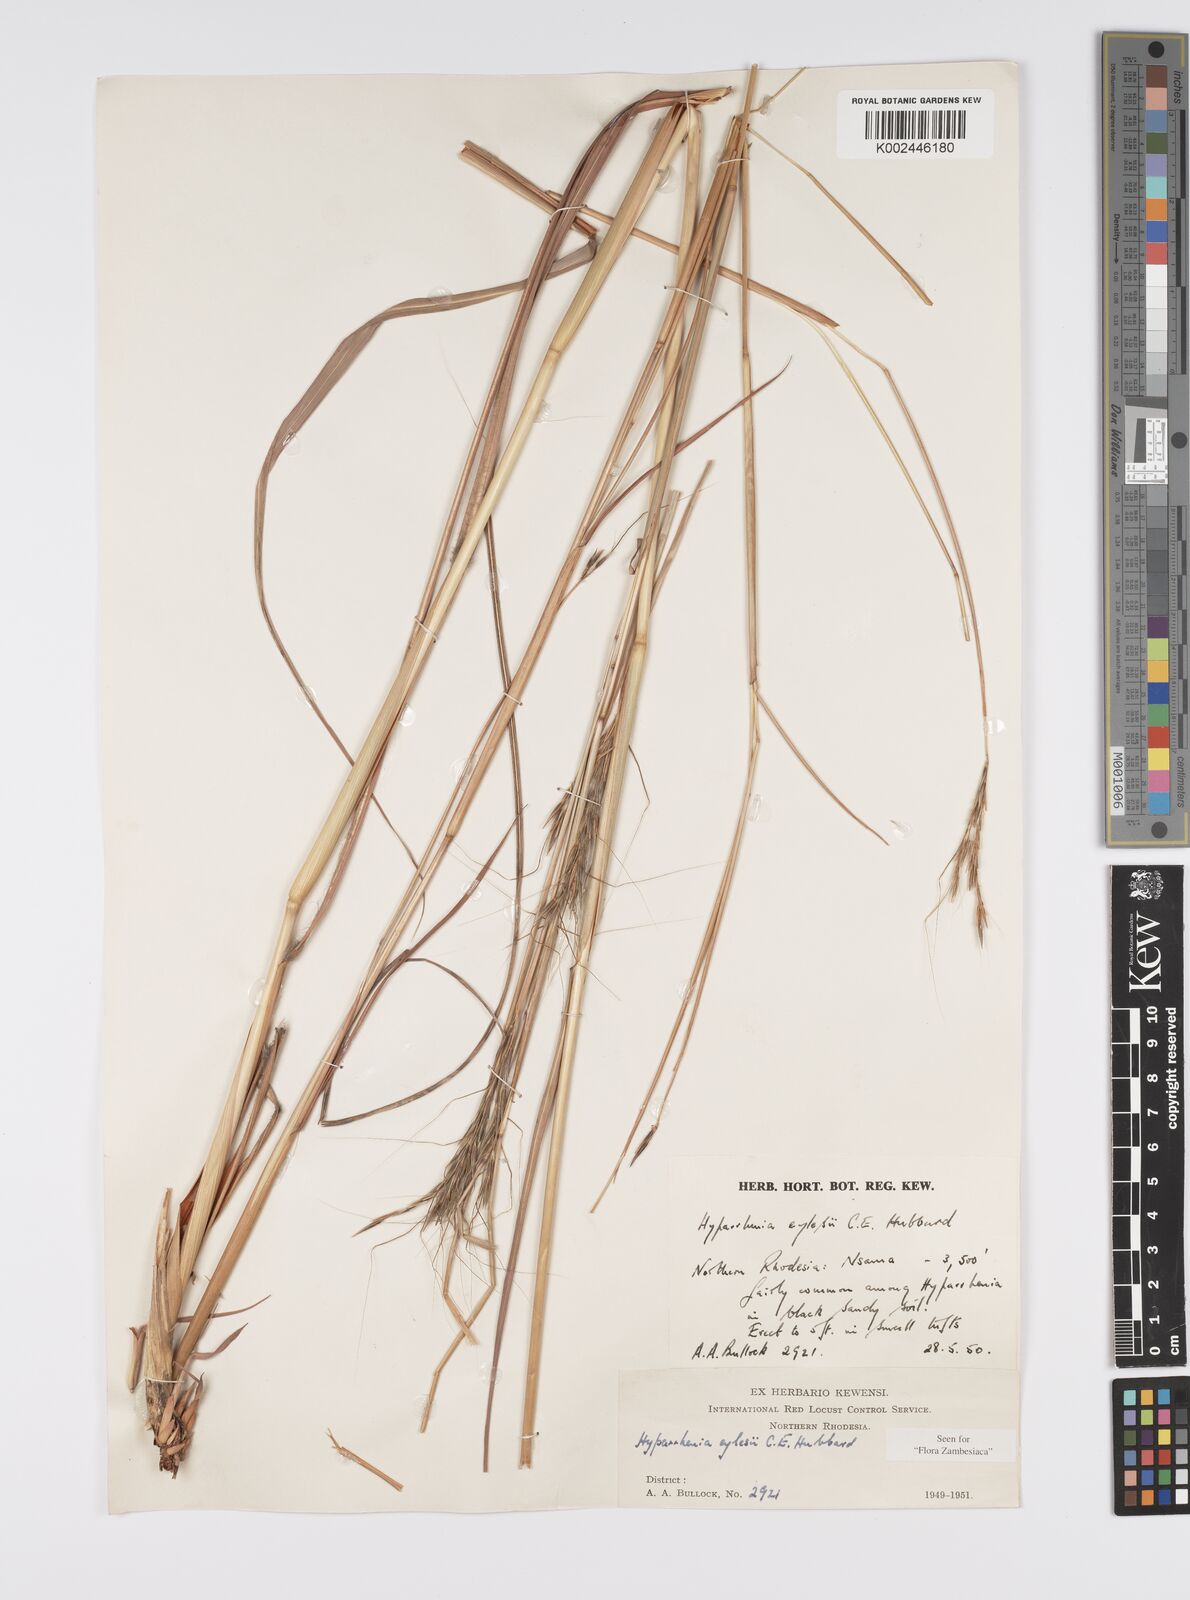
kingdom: Plantae
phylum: Tracheophyta
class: Liliopsida
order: Poales
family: Poaceae
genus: Elymandra
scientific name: Elymandra grallata
